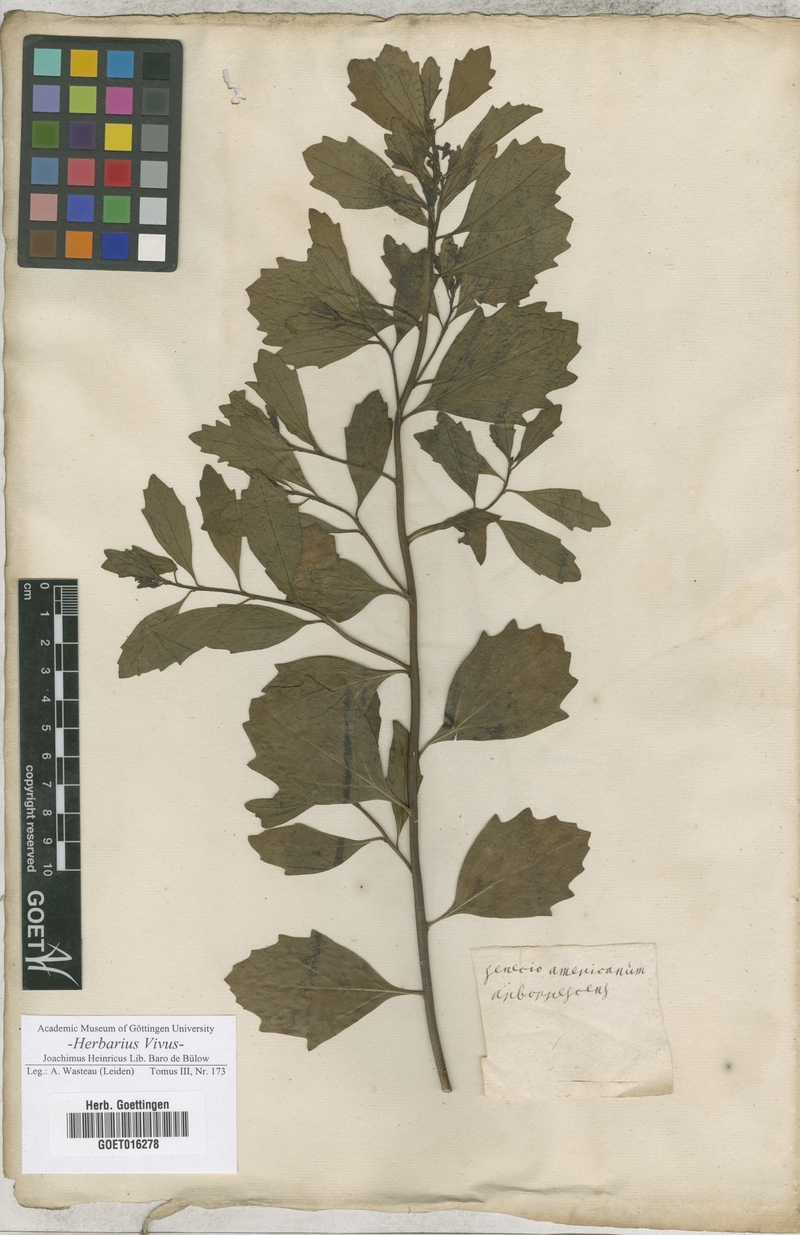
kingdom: Plantae
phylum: Tracheophyta
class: Magnoliopsida
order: Asterales
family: Asteraceae
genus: Senecio
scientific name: Senecio
